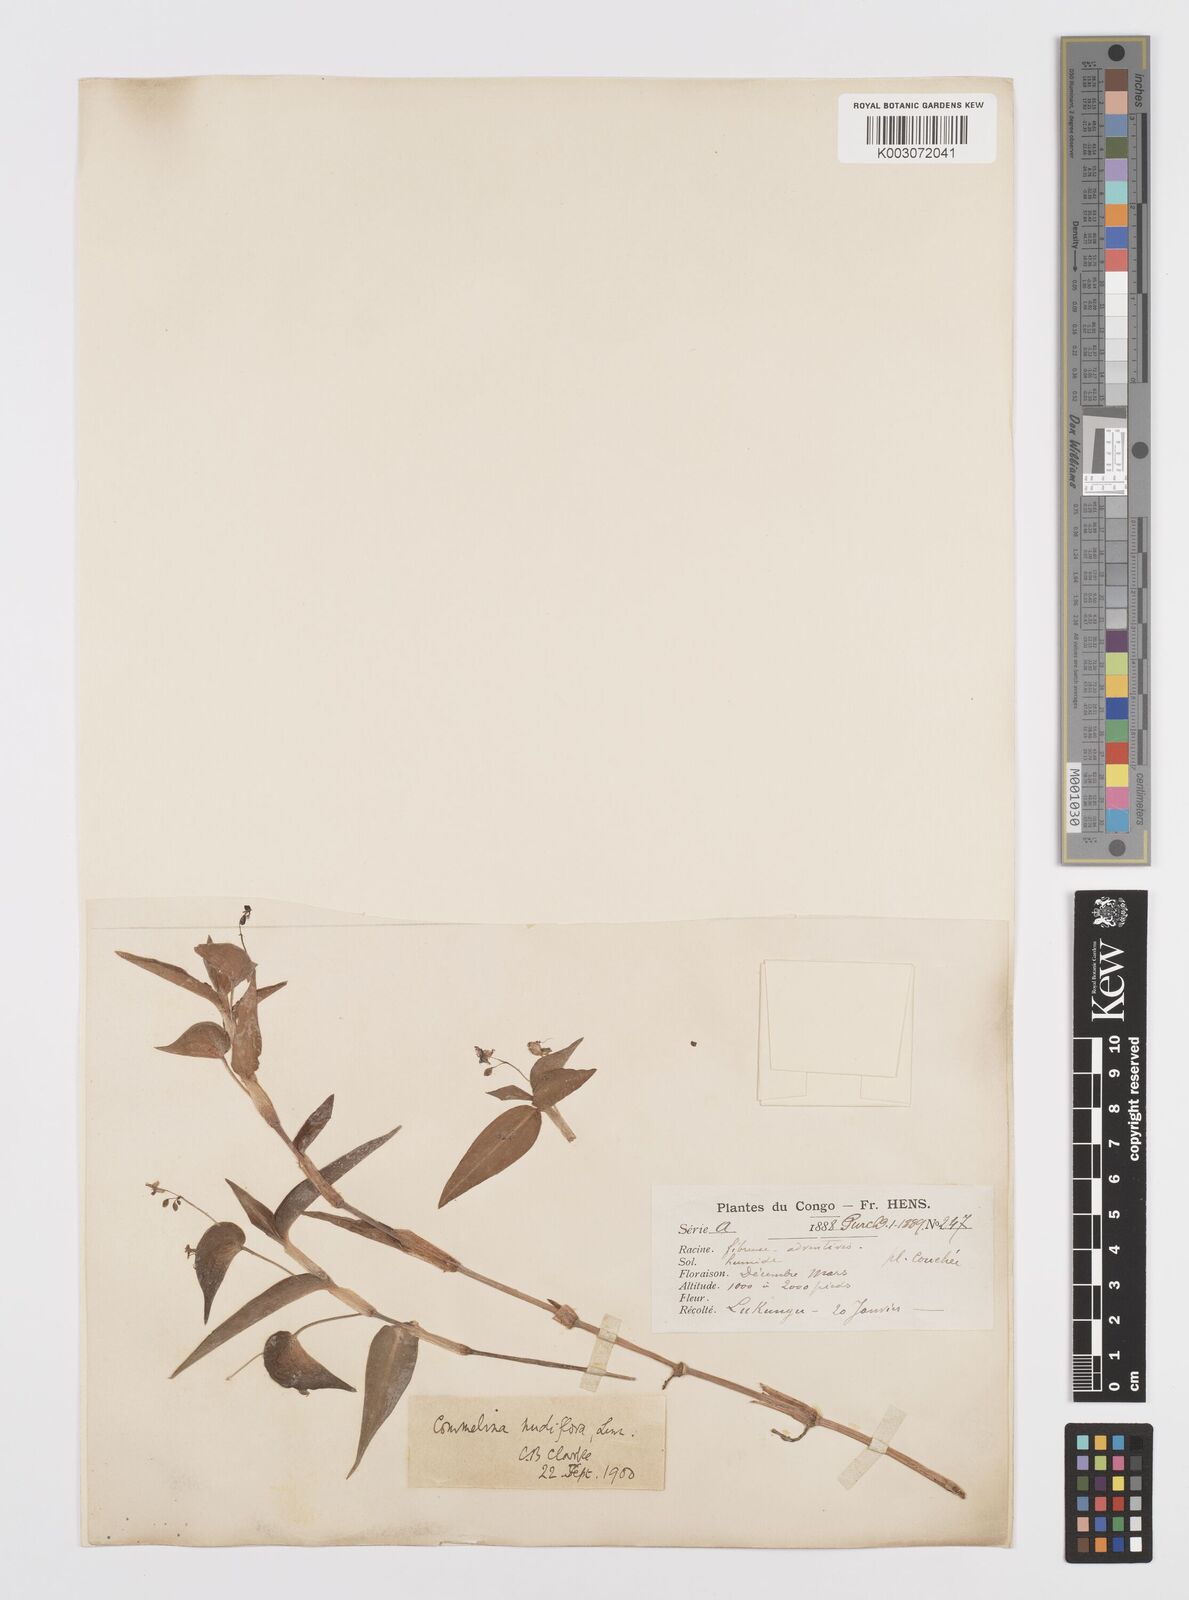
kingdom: Plantae
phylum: Tracheophyta
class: Liliopsida
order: Commelinales
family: Commelinaceae
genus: Commelina
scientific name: Commelina diffusa
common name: Climbing dayflower
